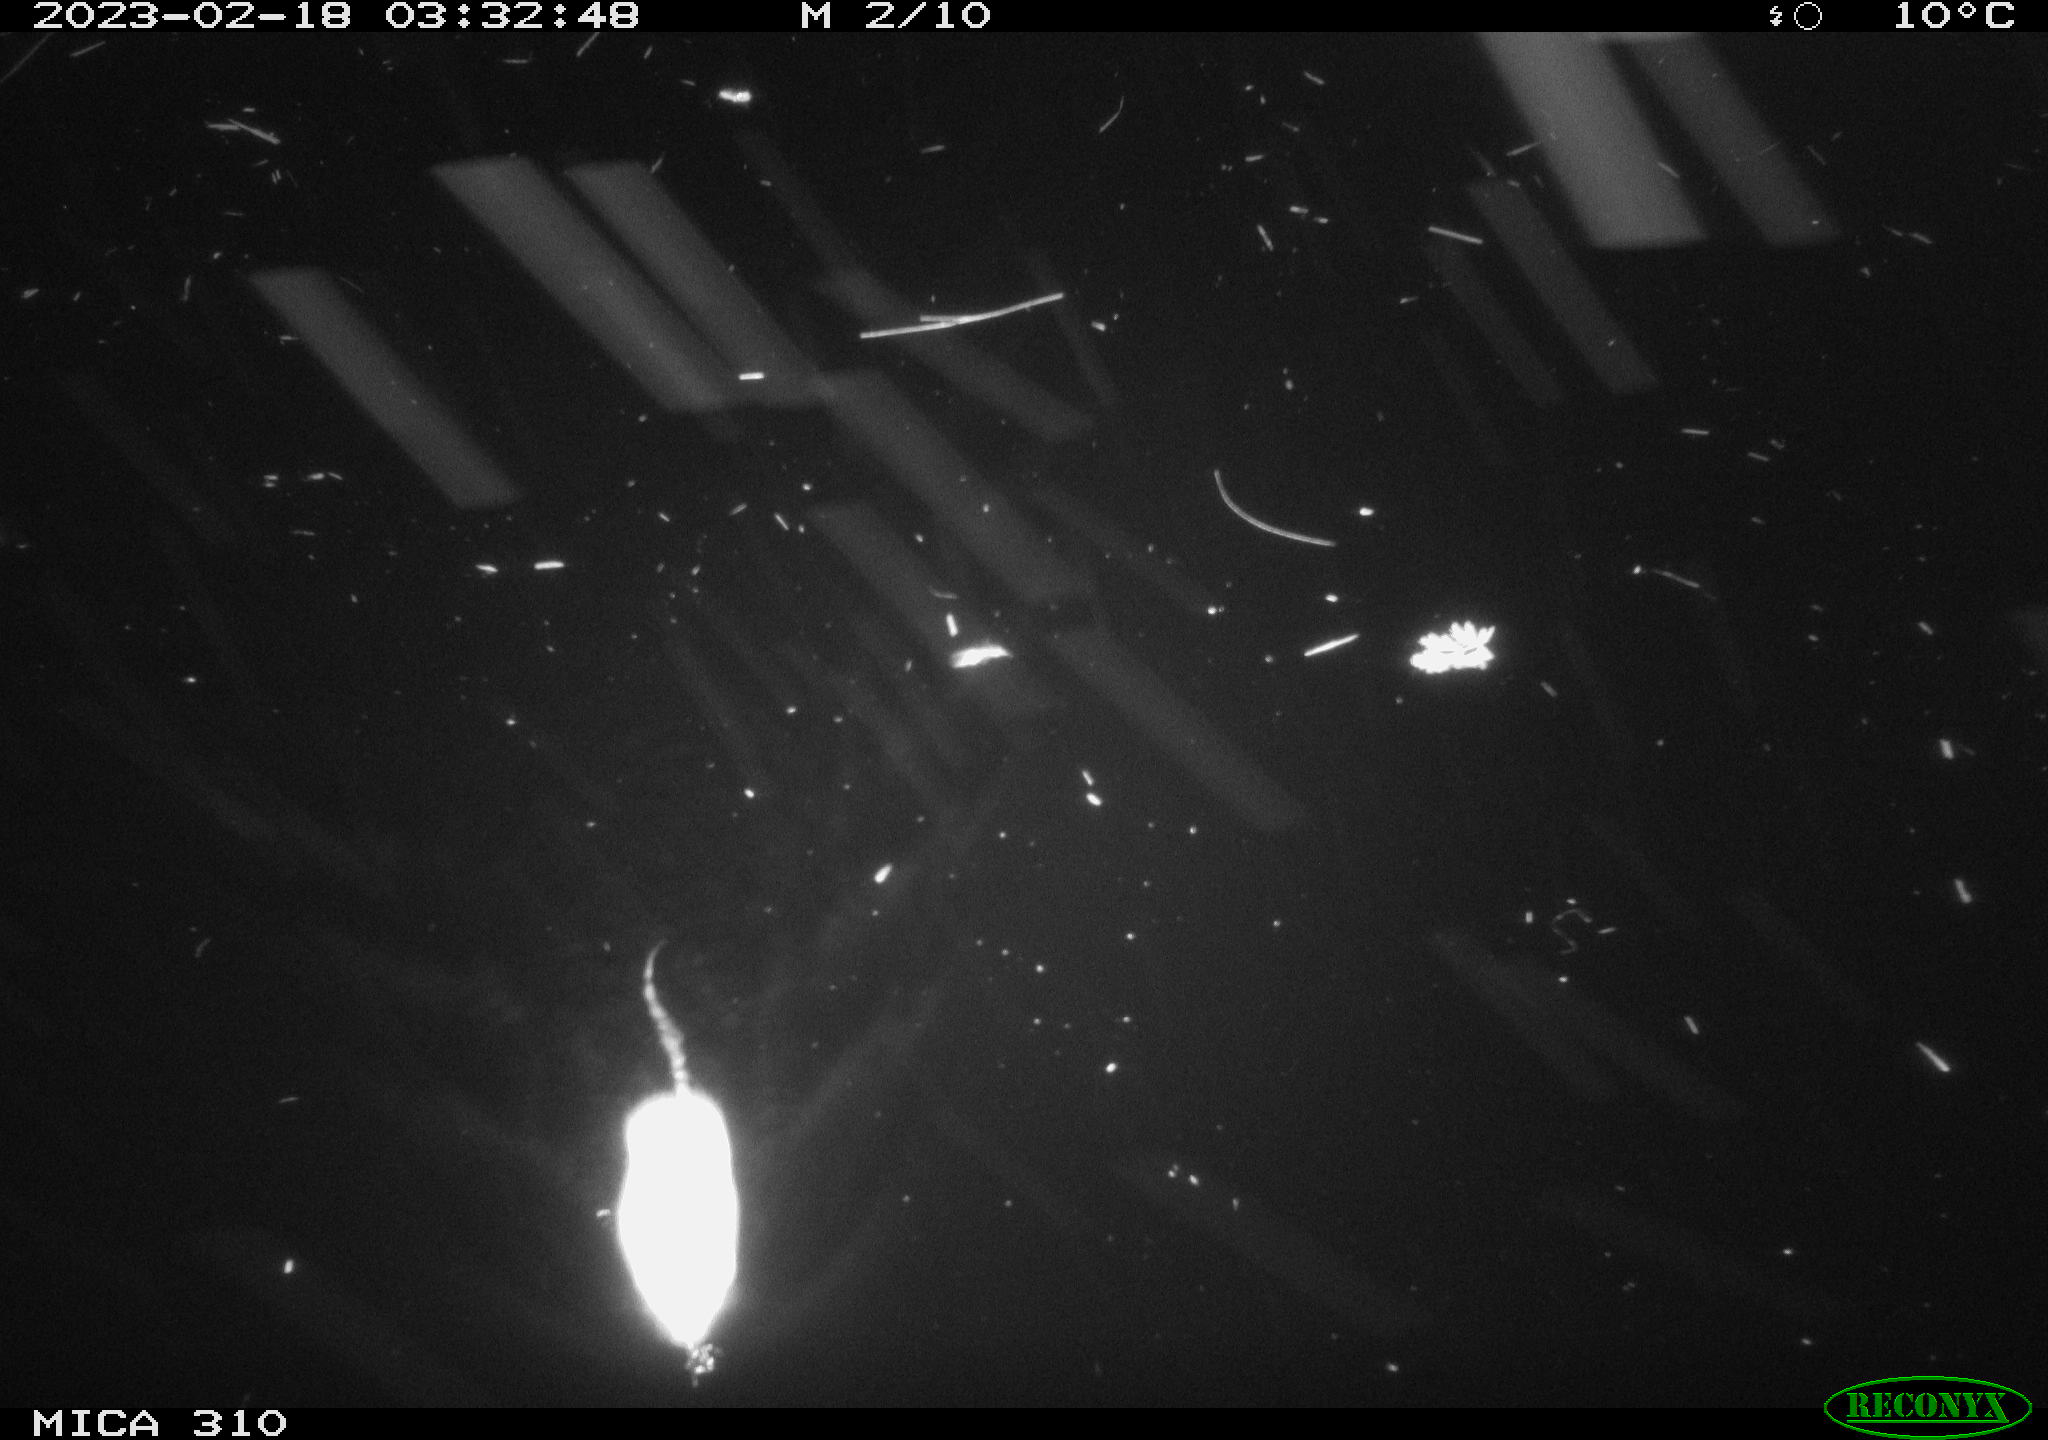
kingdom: Animalia
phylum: Chordata
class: Mammalia
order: Rodentia
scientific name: Rodentia
